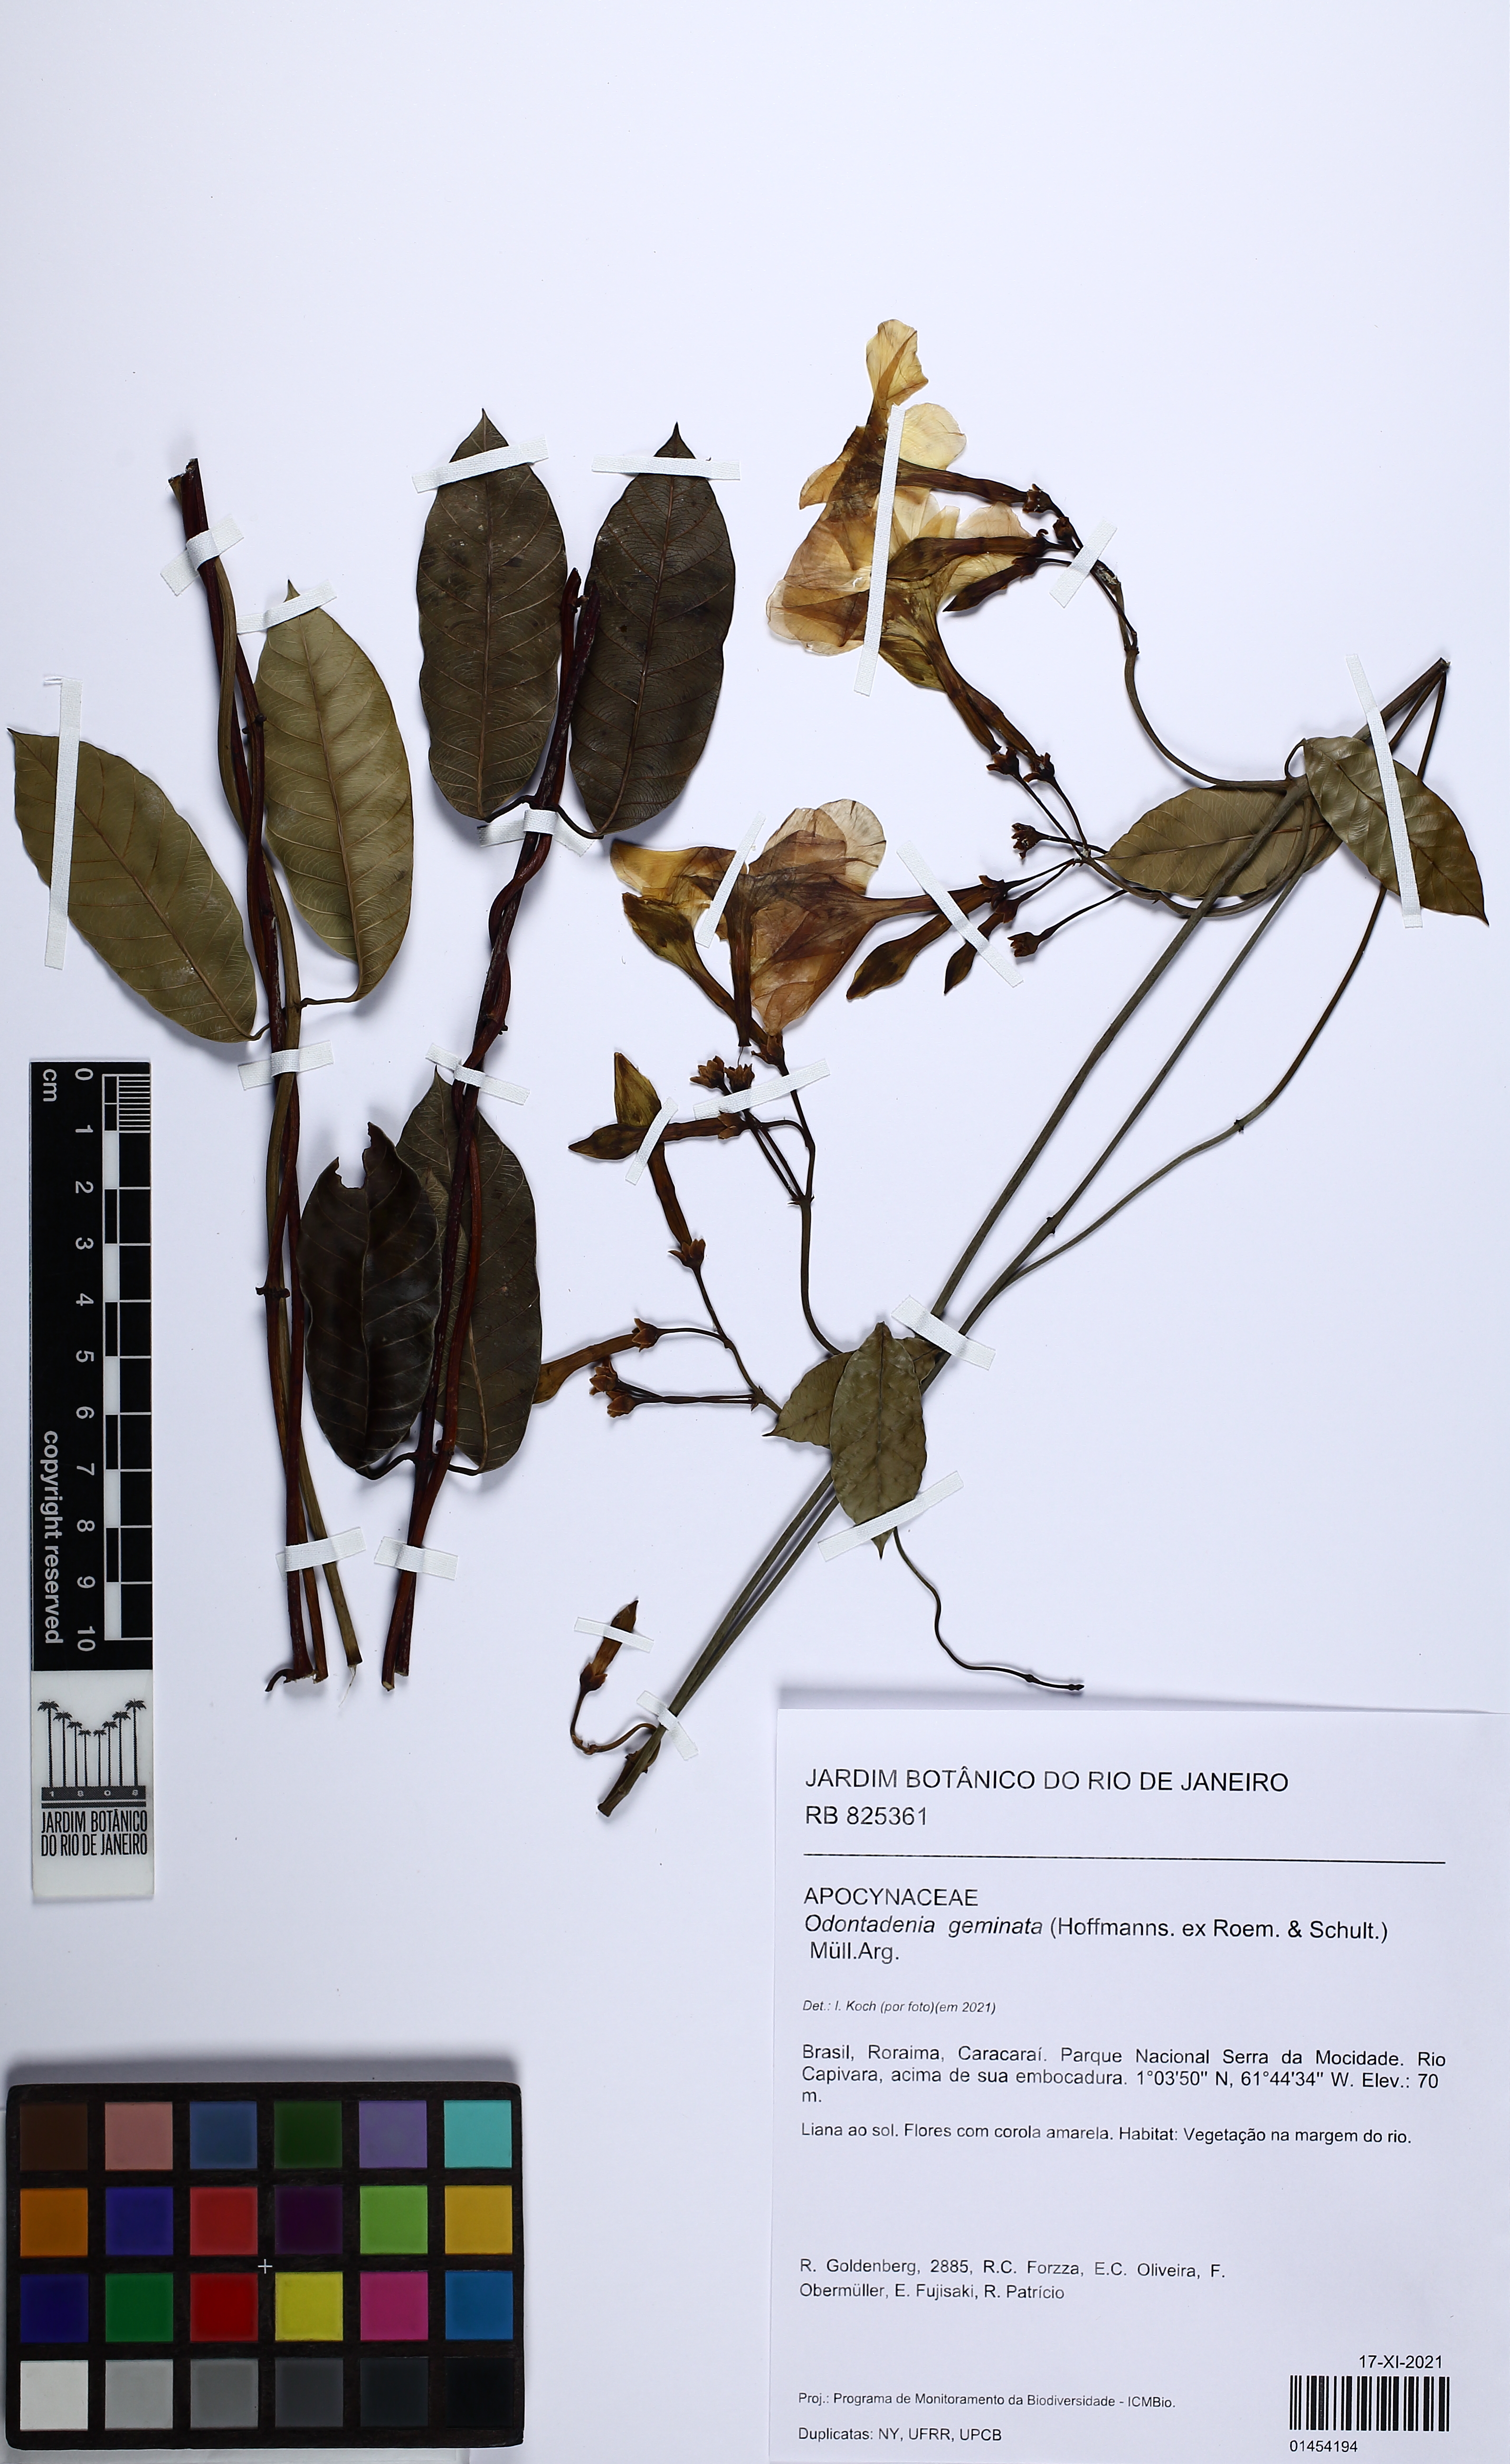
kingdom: Plantae
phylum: Tracheophyta
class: Magnoliopsida
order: Gentianales
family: Apocynaceae
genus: Odontadenia
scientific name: Odontadenia geminata
